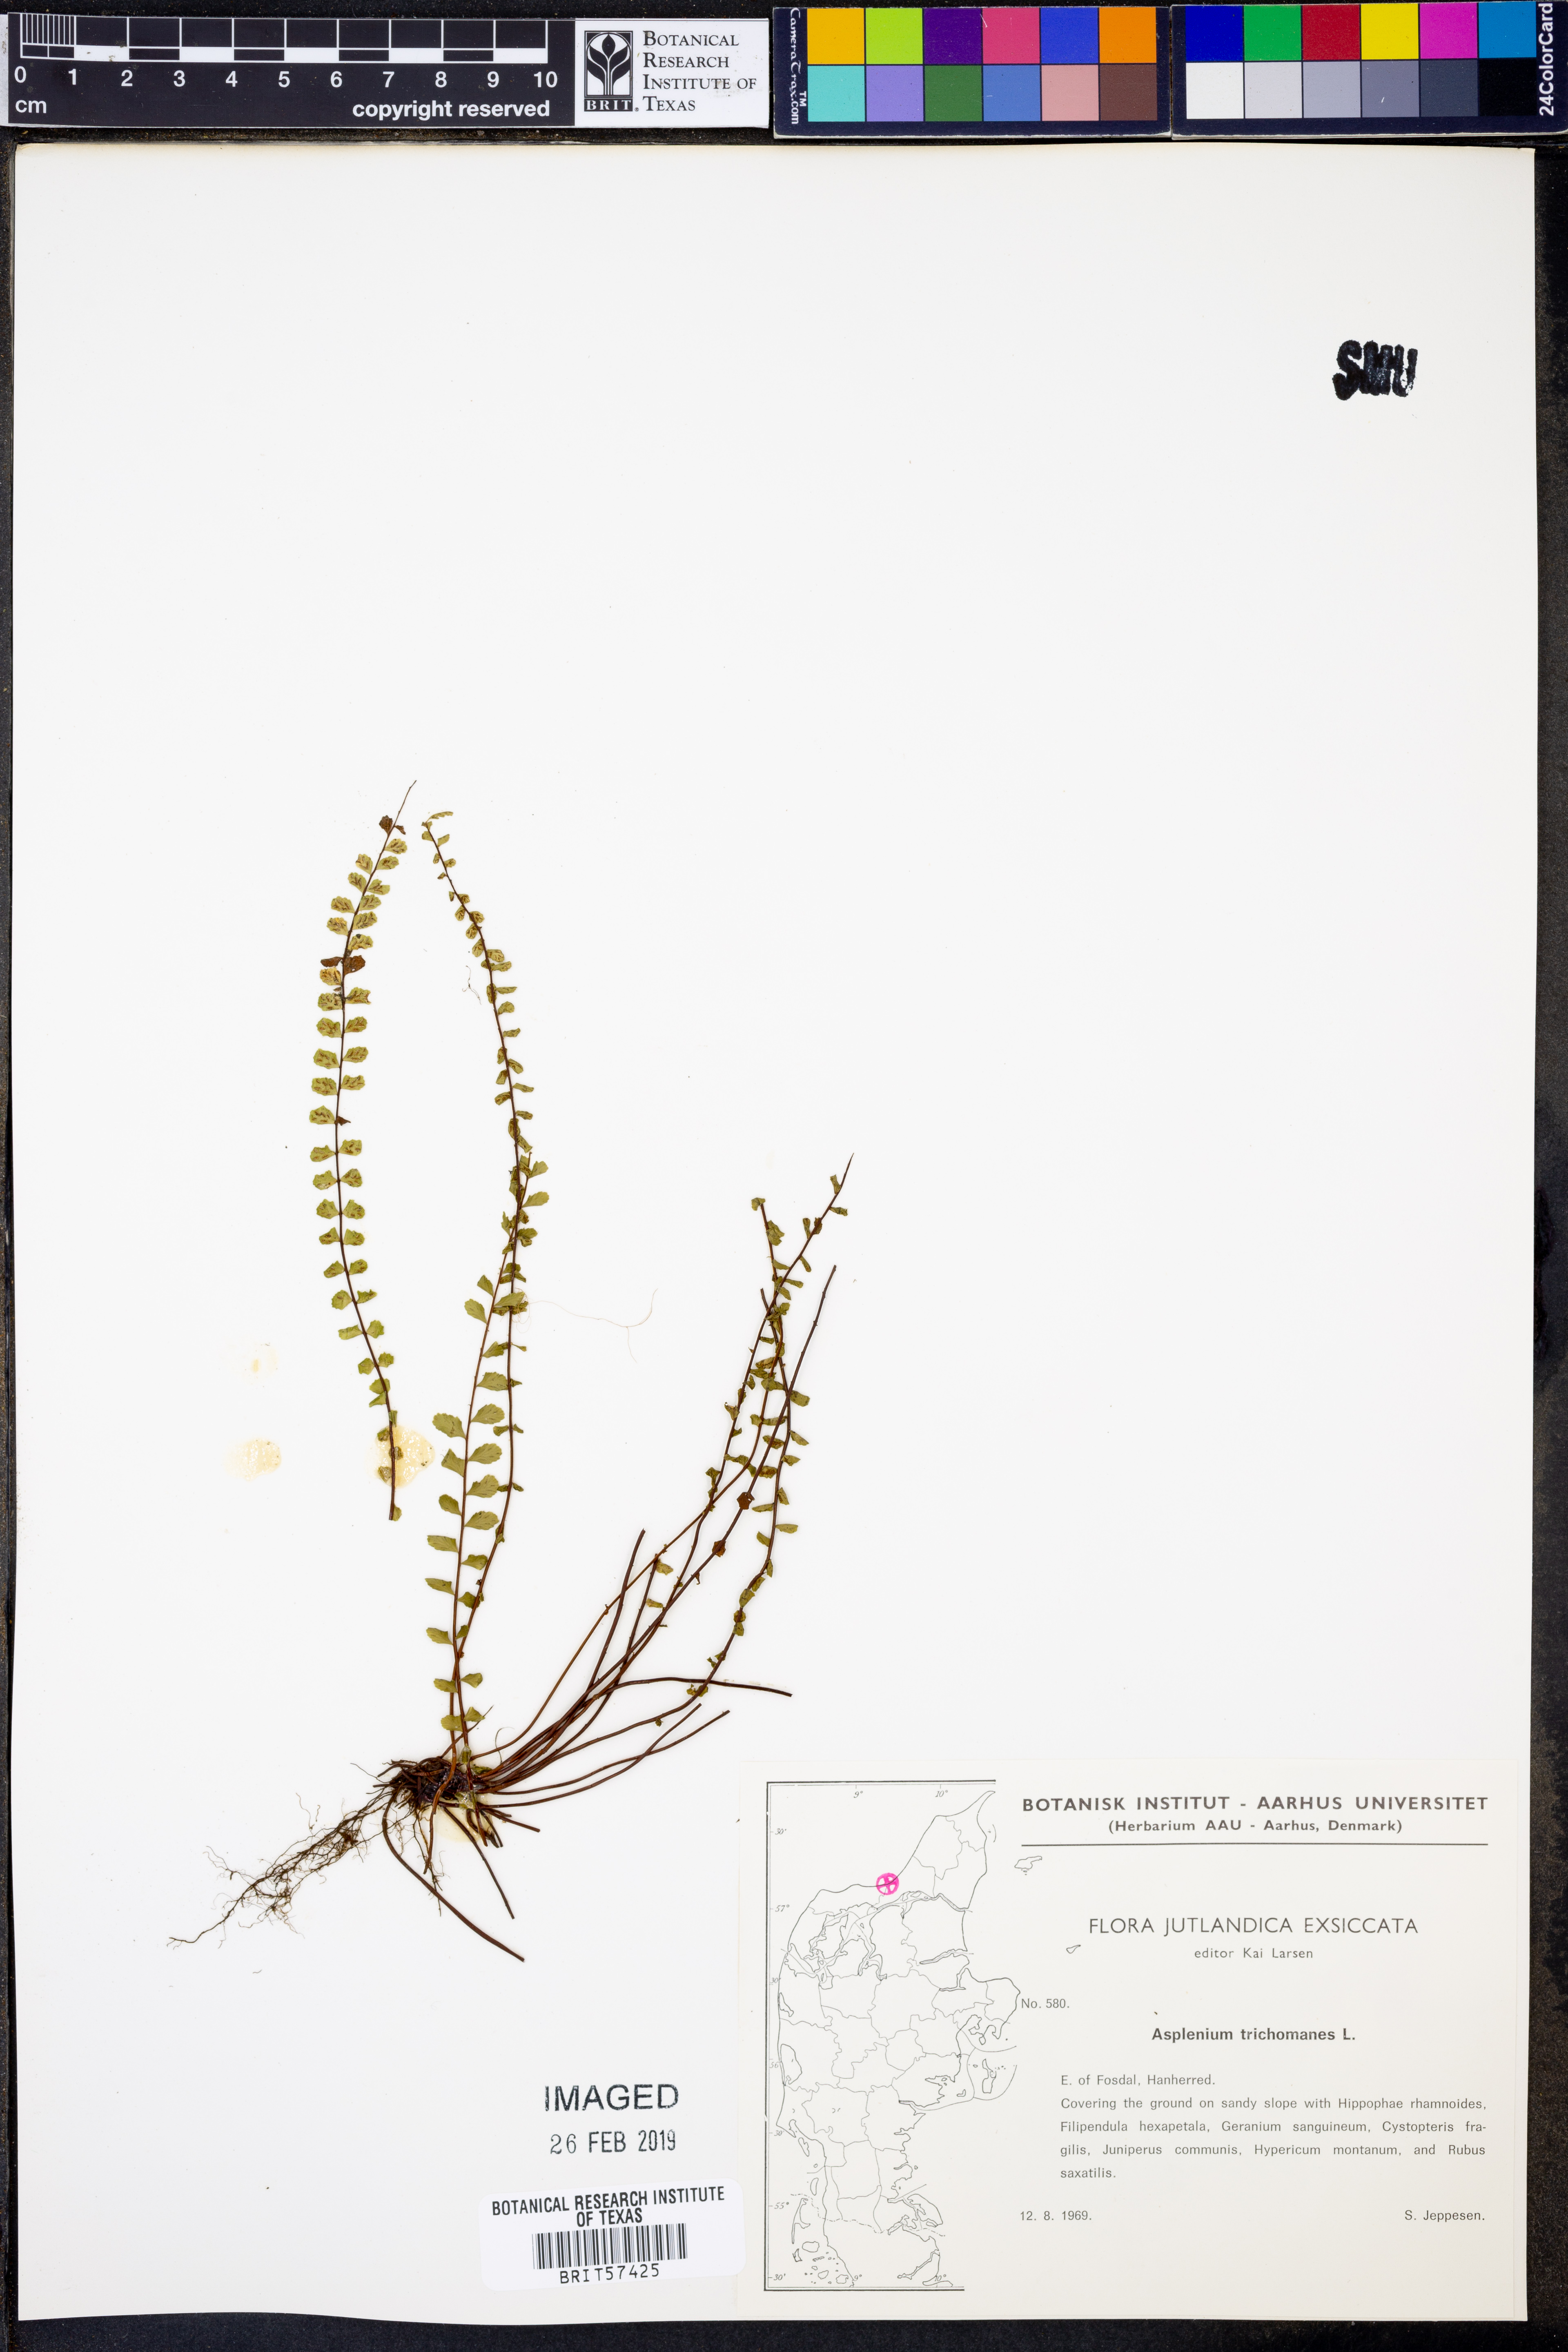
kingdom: Plantae
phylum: Tracheophyta
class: Polypodiopsida
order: Polypodiales
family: Aspleniaceae
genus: Asplenium
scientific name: Asplenium trichomanes
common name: Maidenhair spleenwort
